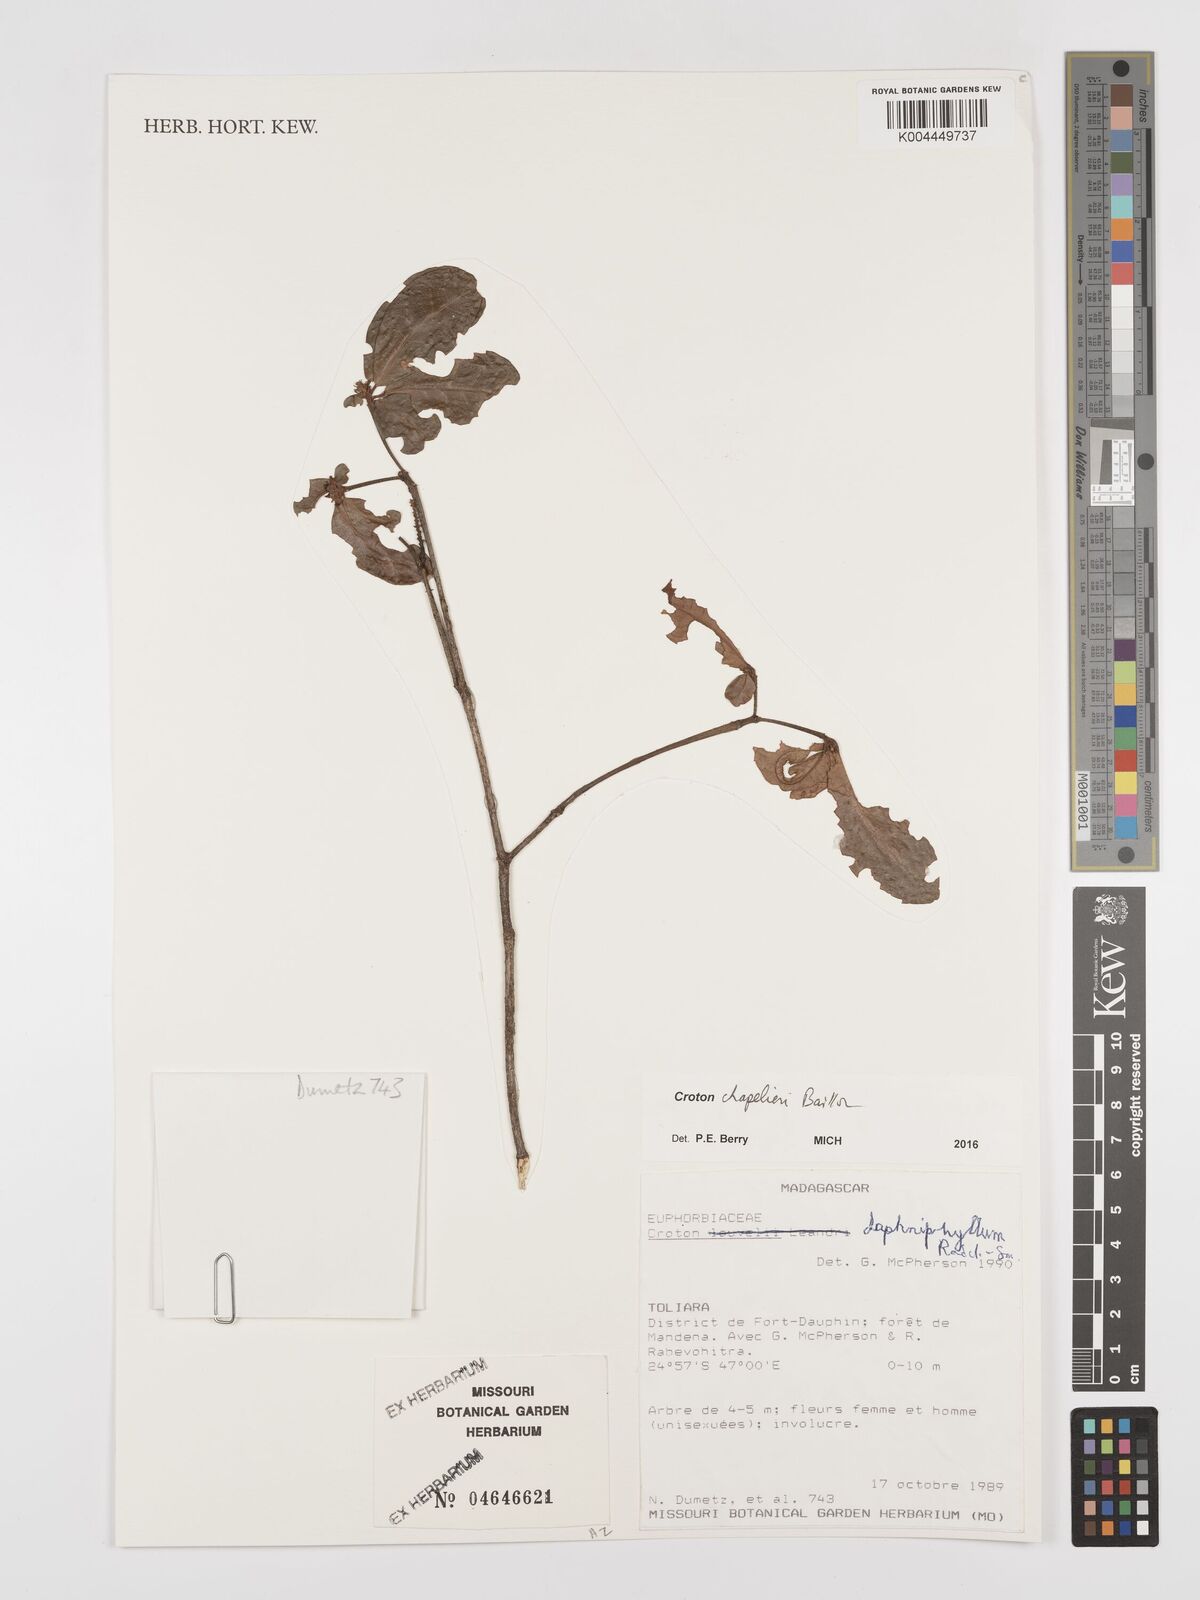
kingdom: Plantae
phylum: Tracheophyta
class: Magnoliopsida
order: Malpighiales
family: Euphorbiaceae
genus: Croton
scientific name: Croton chapelieri
